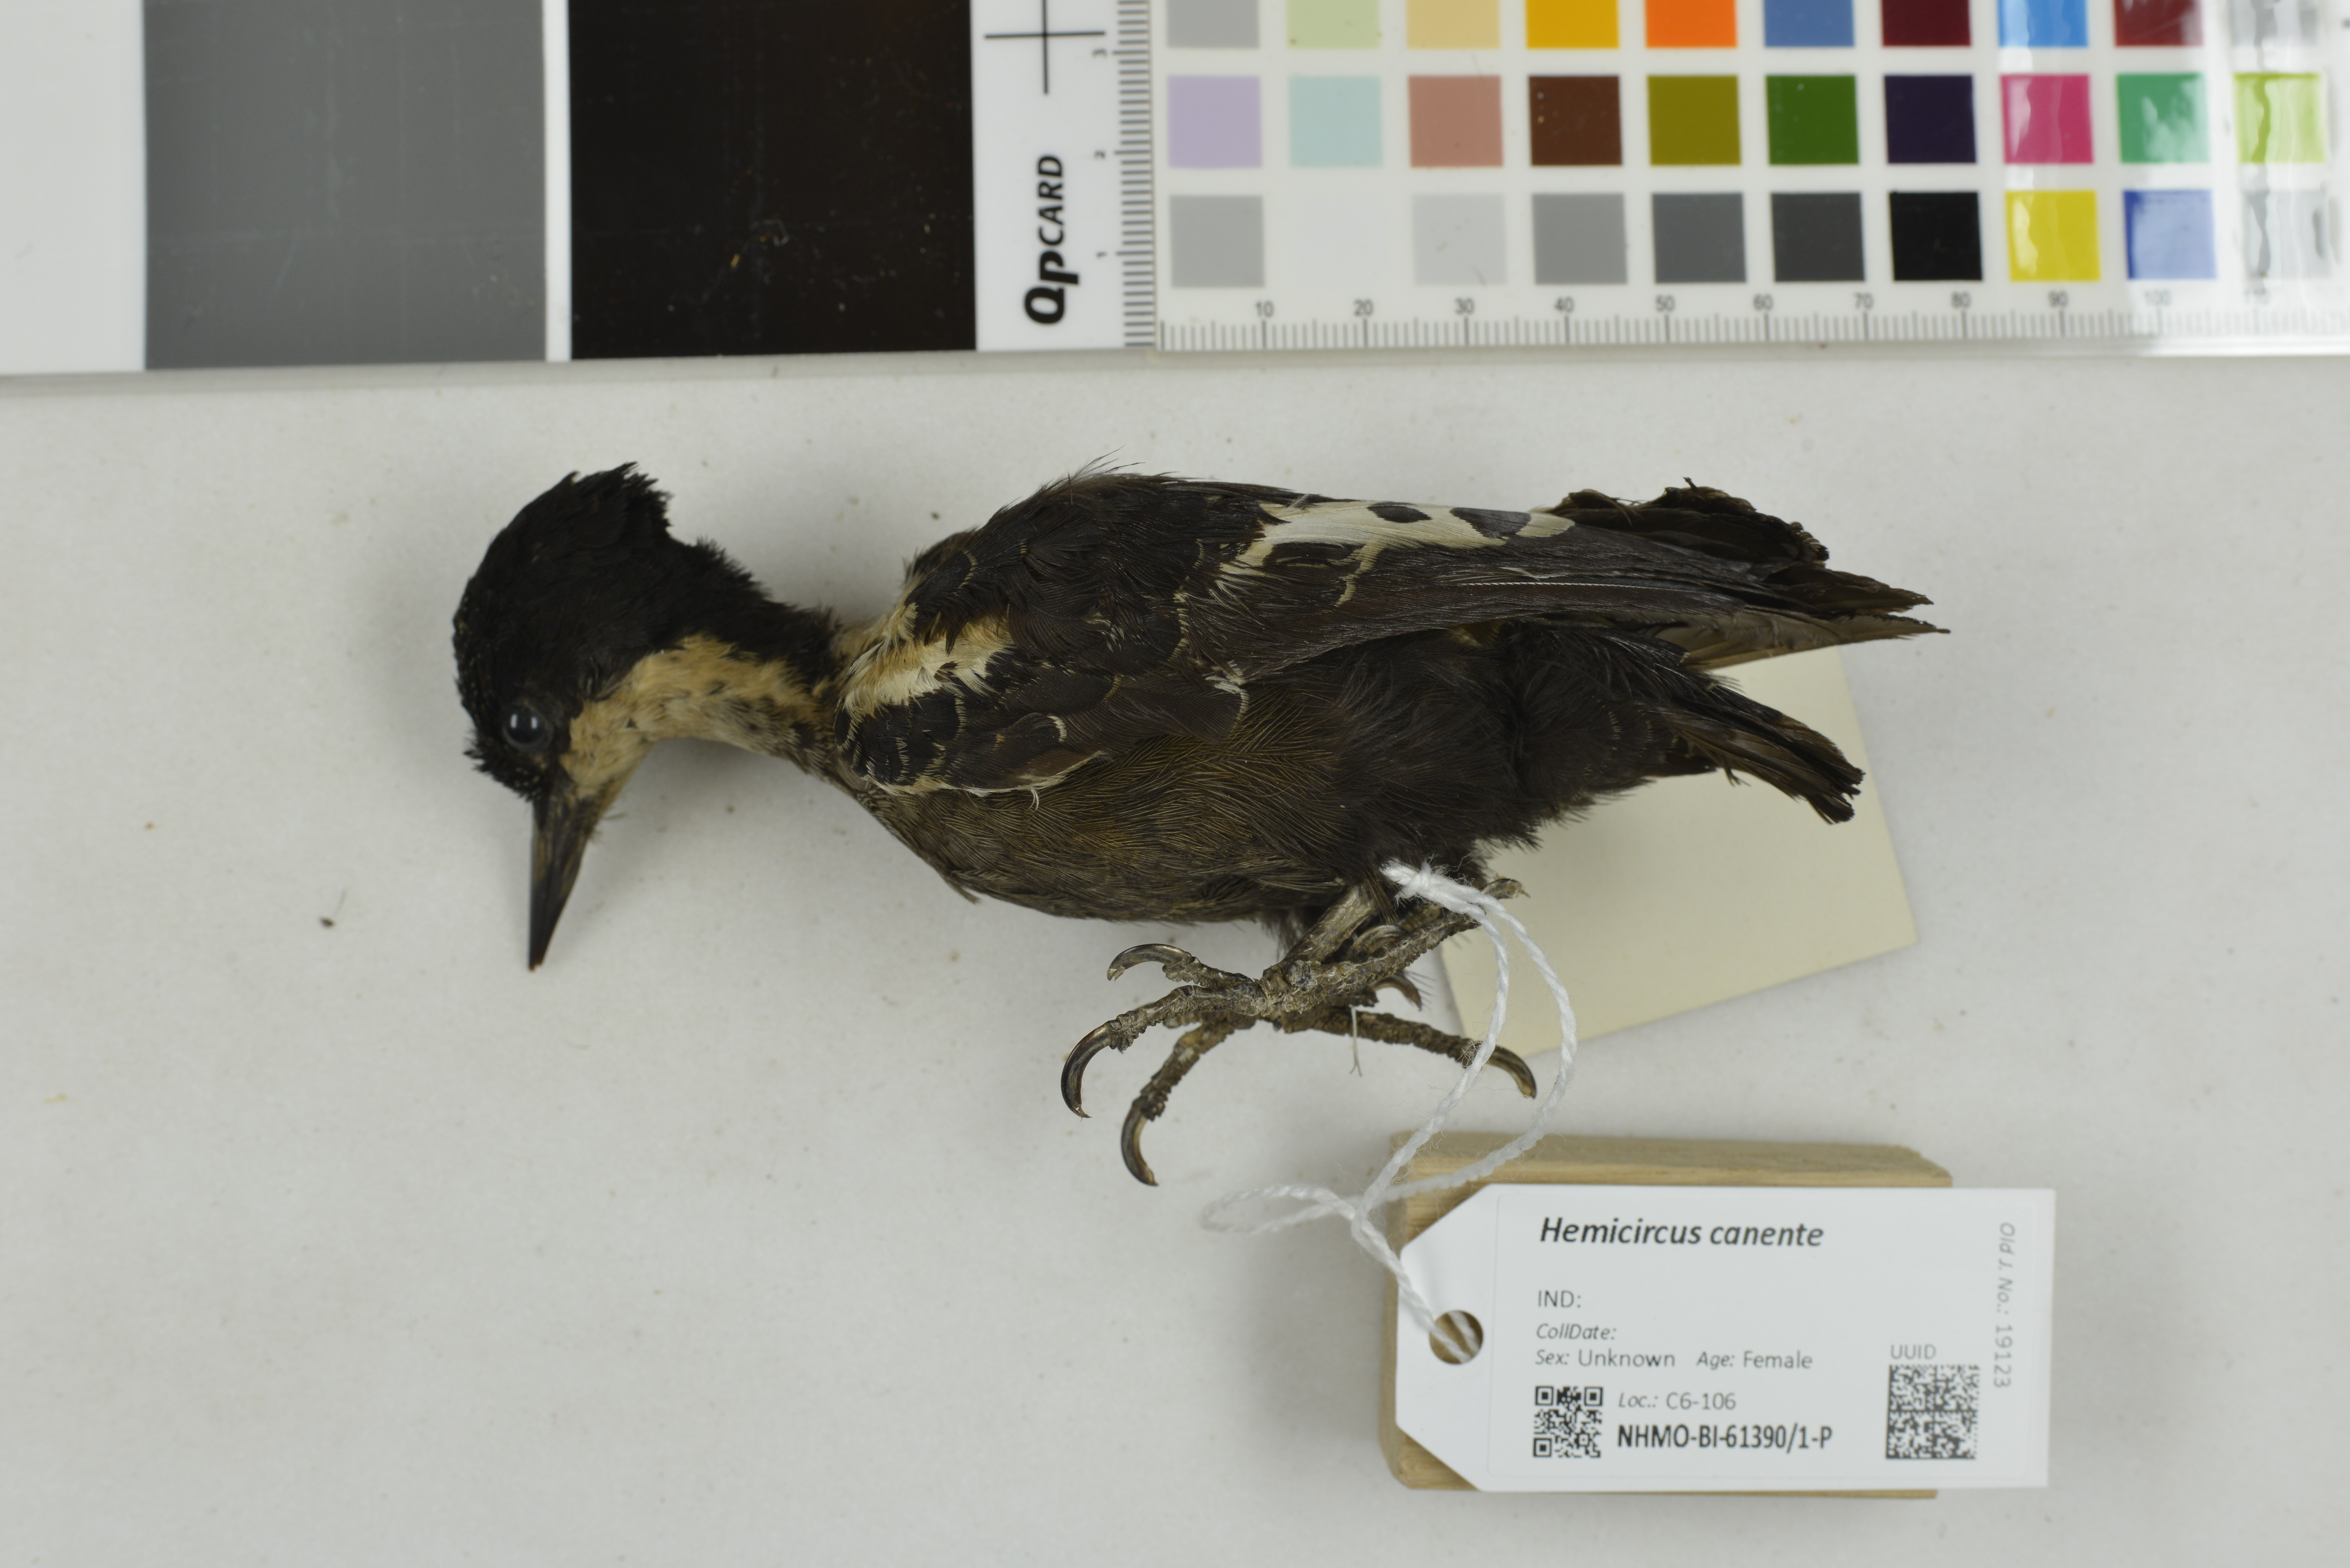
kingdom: Animalia
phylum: Chordata
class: Aves
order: Piciformes
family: Picidae
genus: Hemicircus
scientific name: Hemicircus canente
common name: Heart-spotted woodpecker
